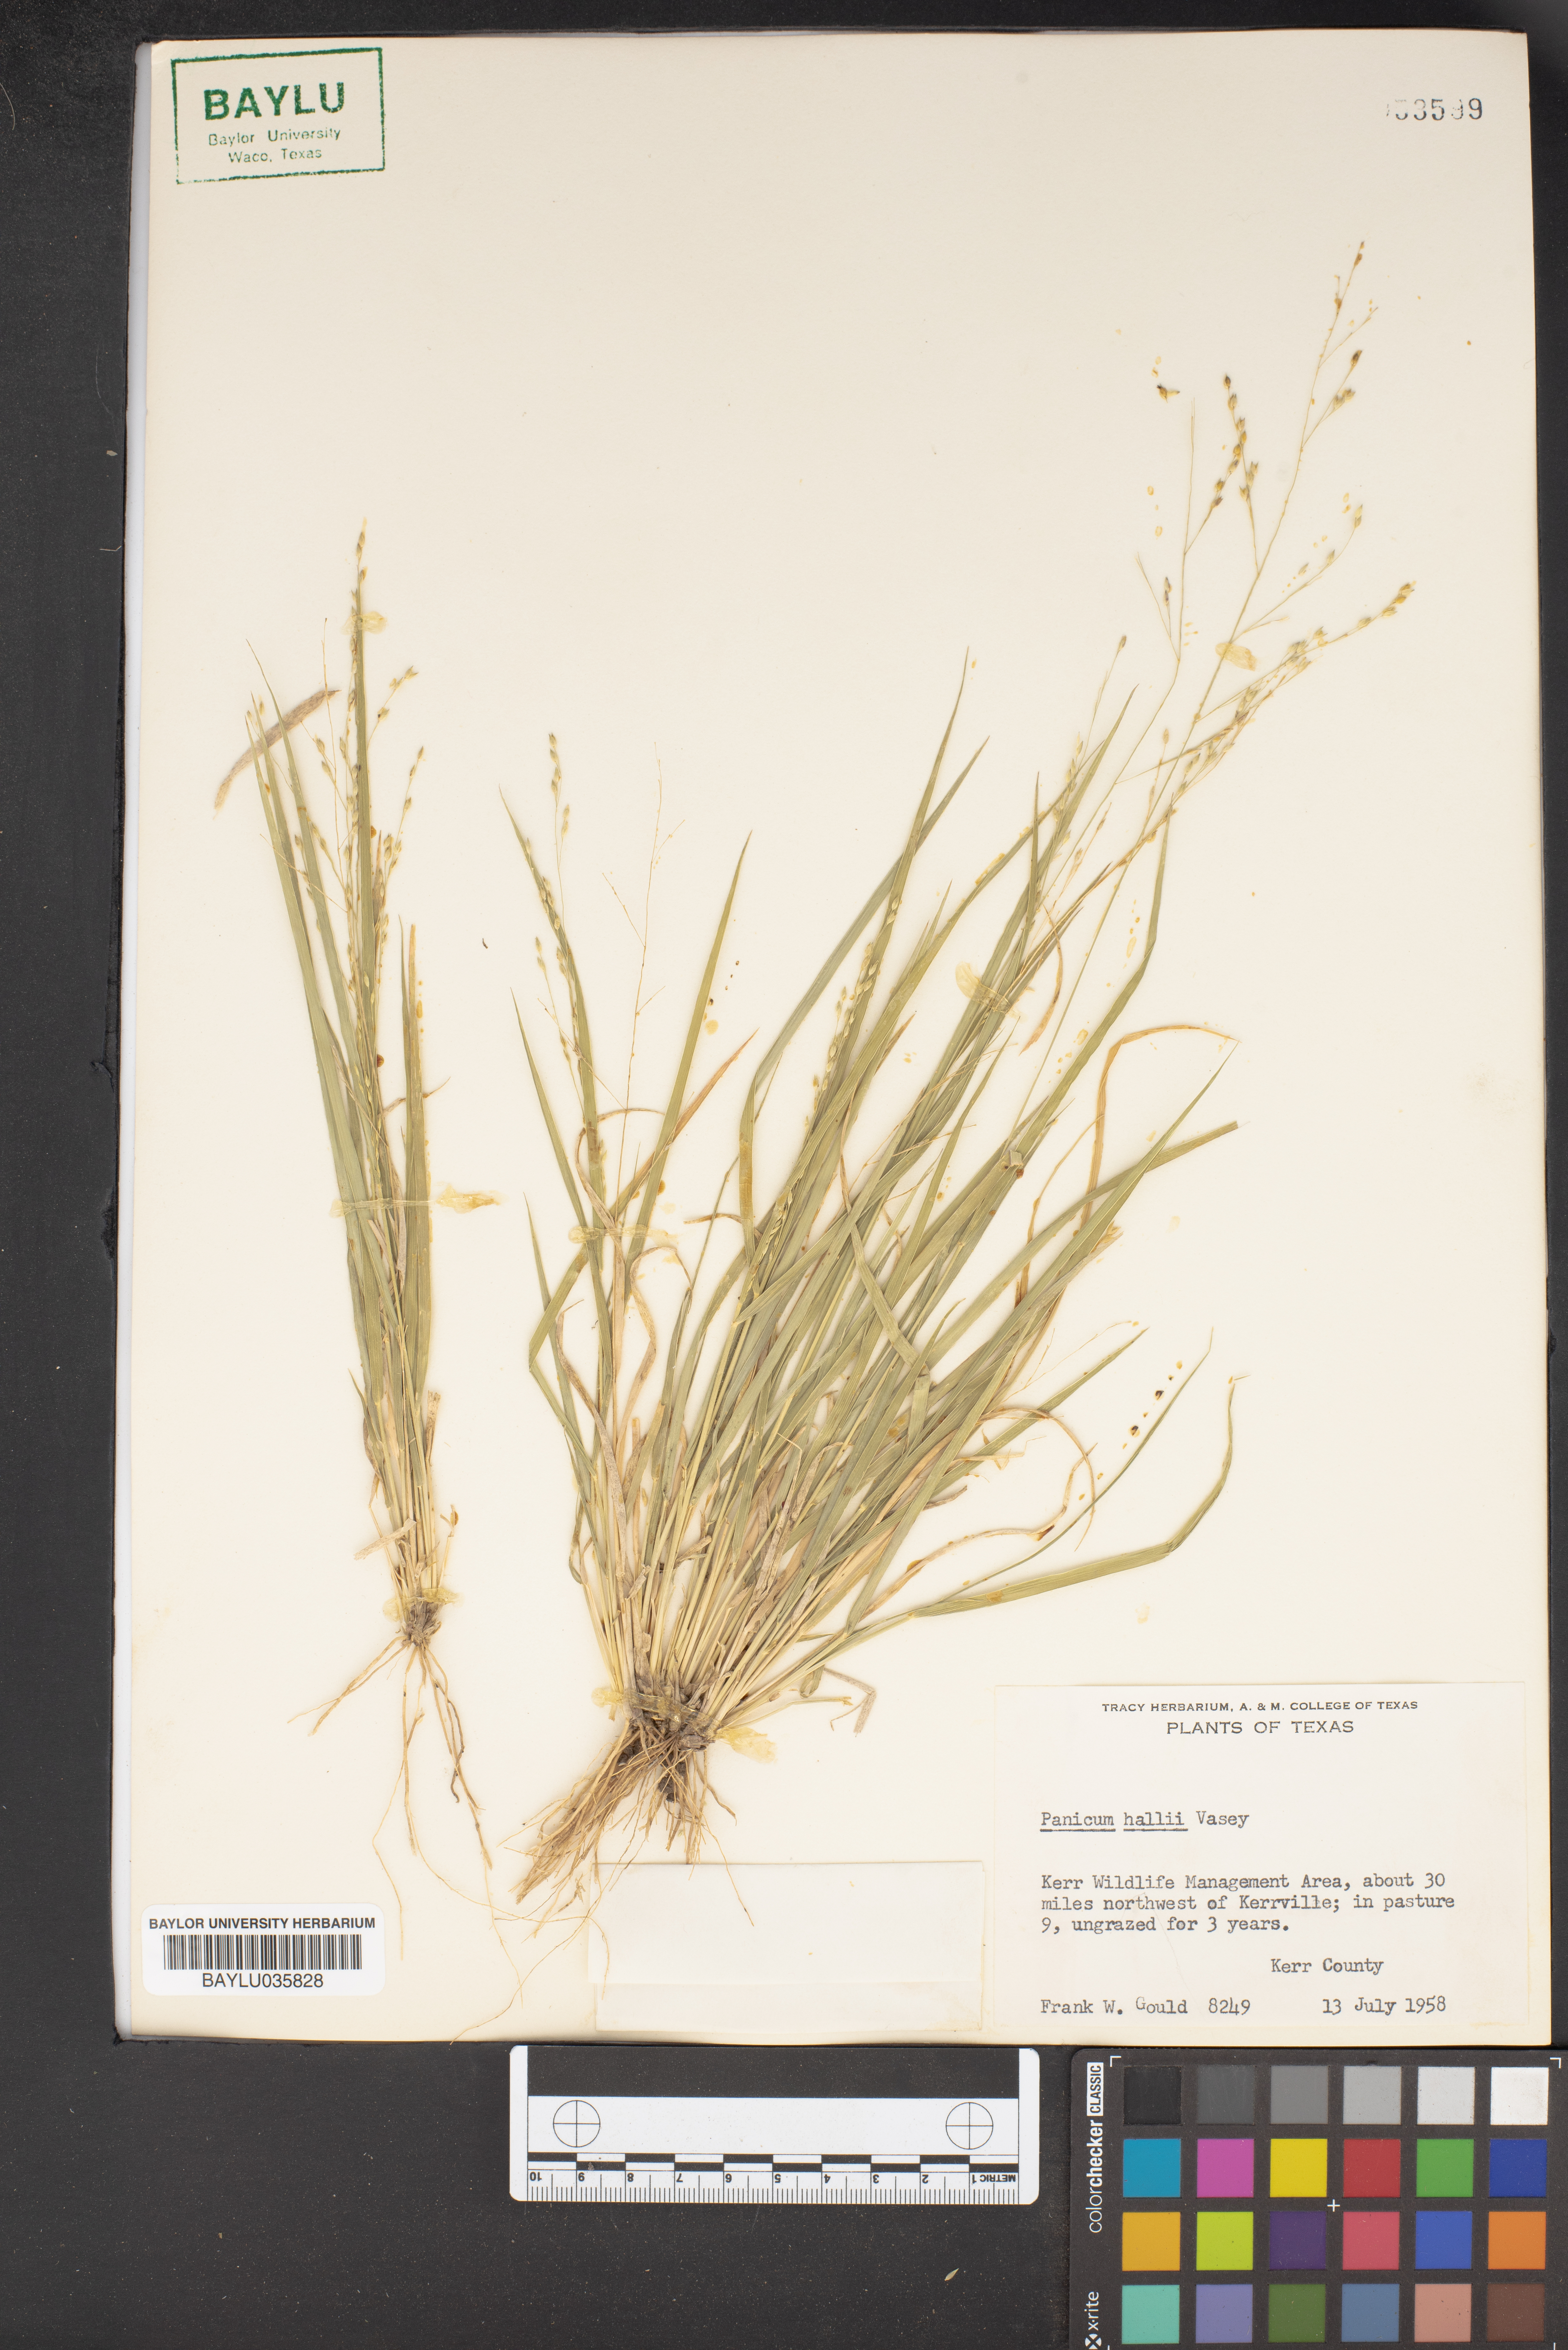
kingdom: Plantae
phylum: Tracheophyta
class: Liliopsida
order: Poales
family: Poaceae
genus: Panicum
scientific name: Panicum hallii
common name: Hall's witchgrass
